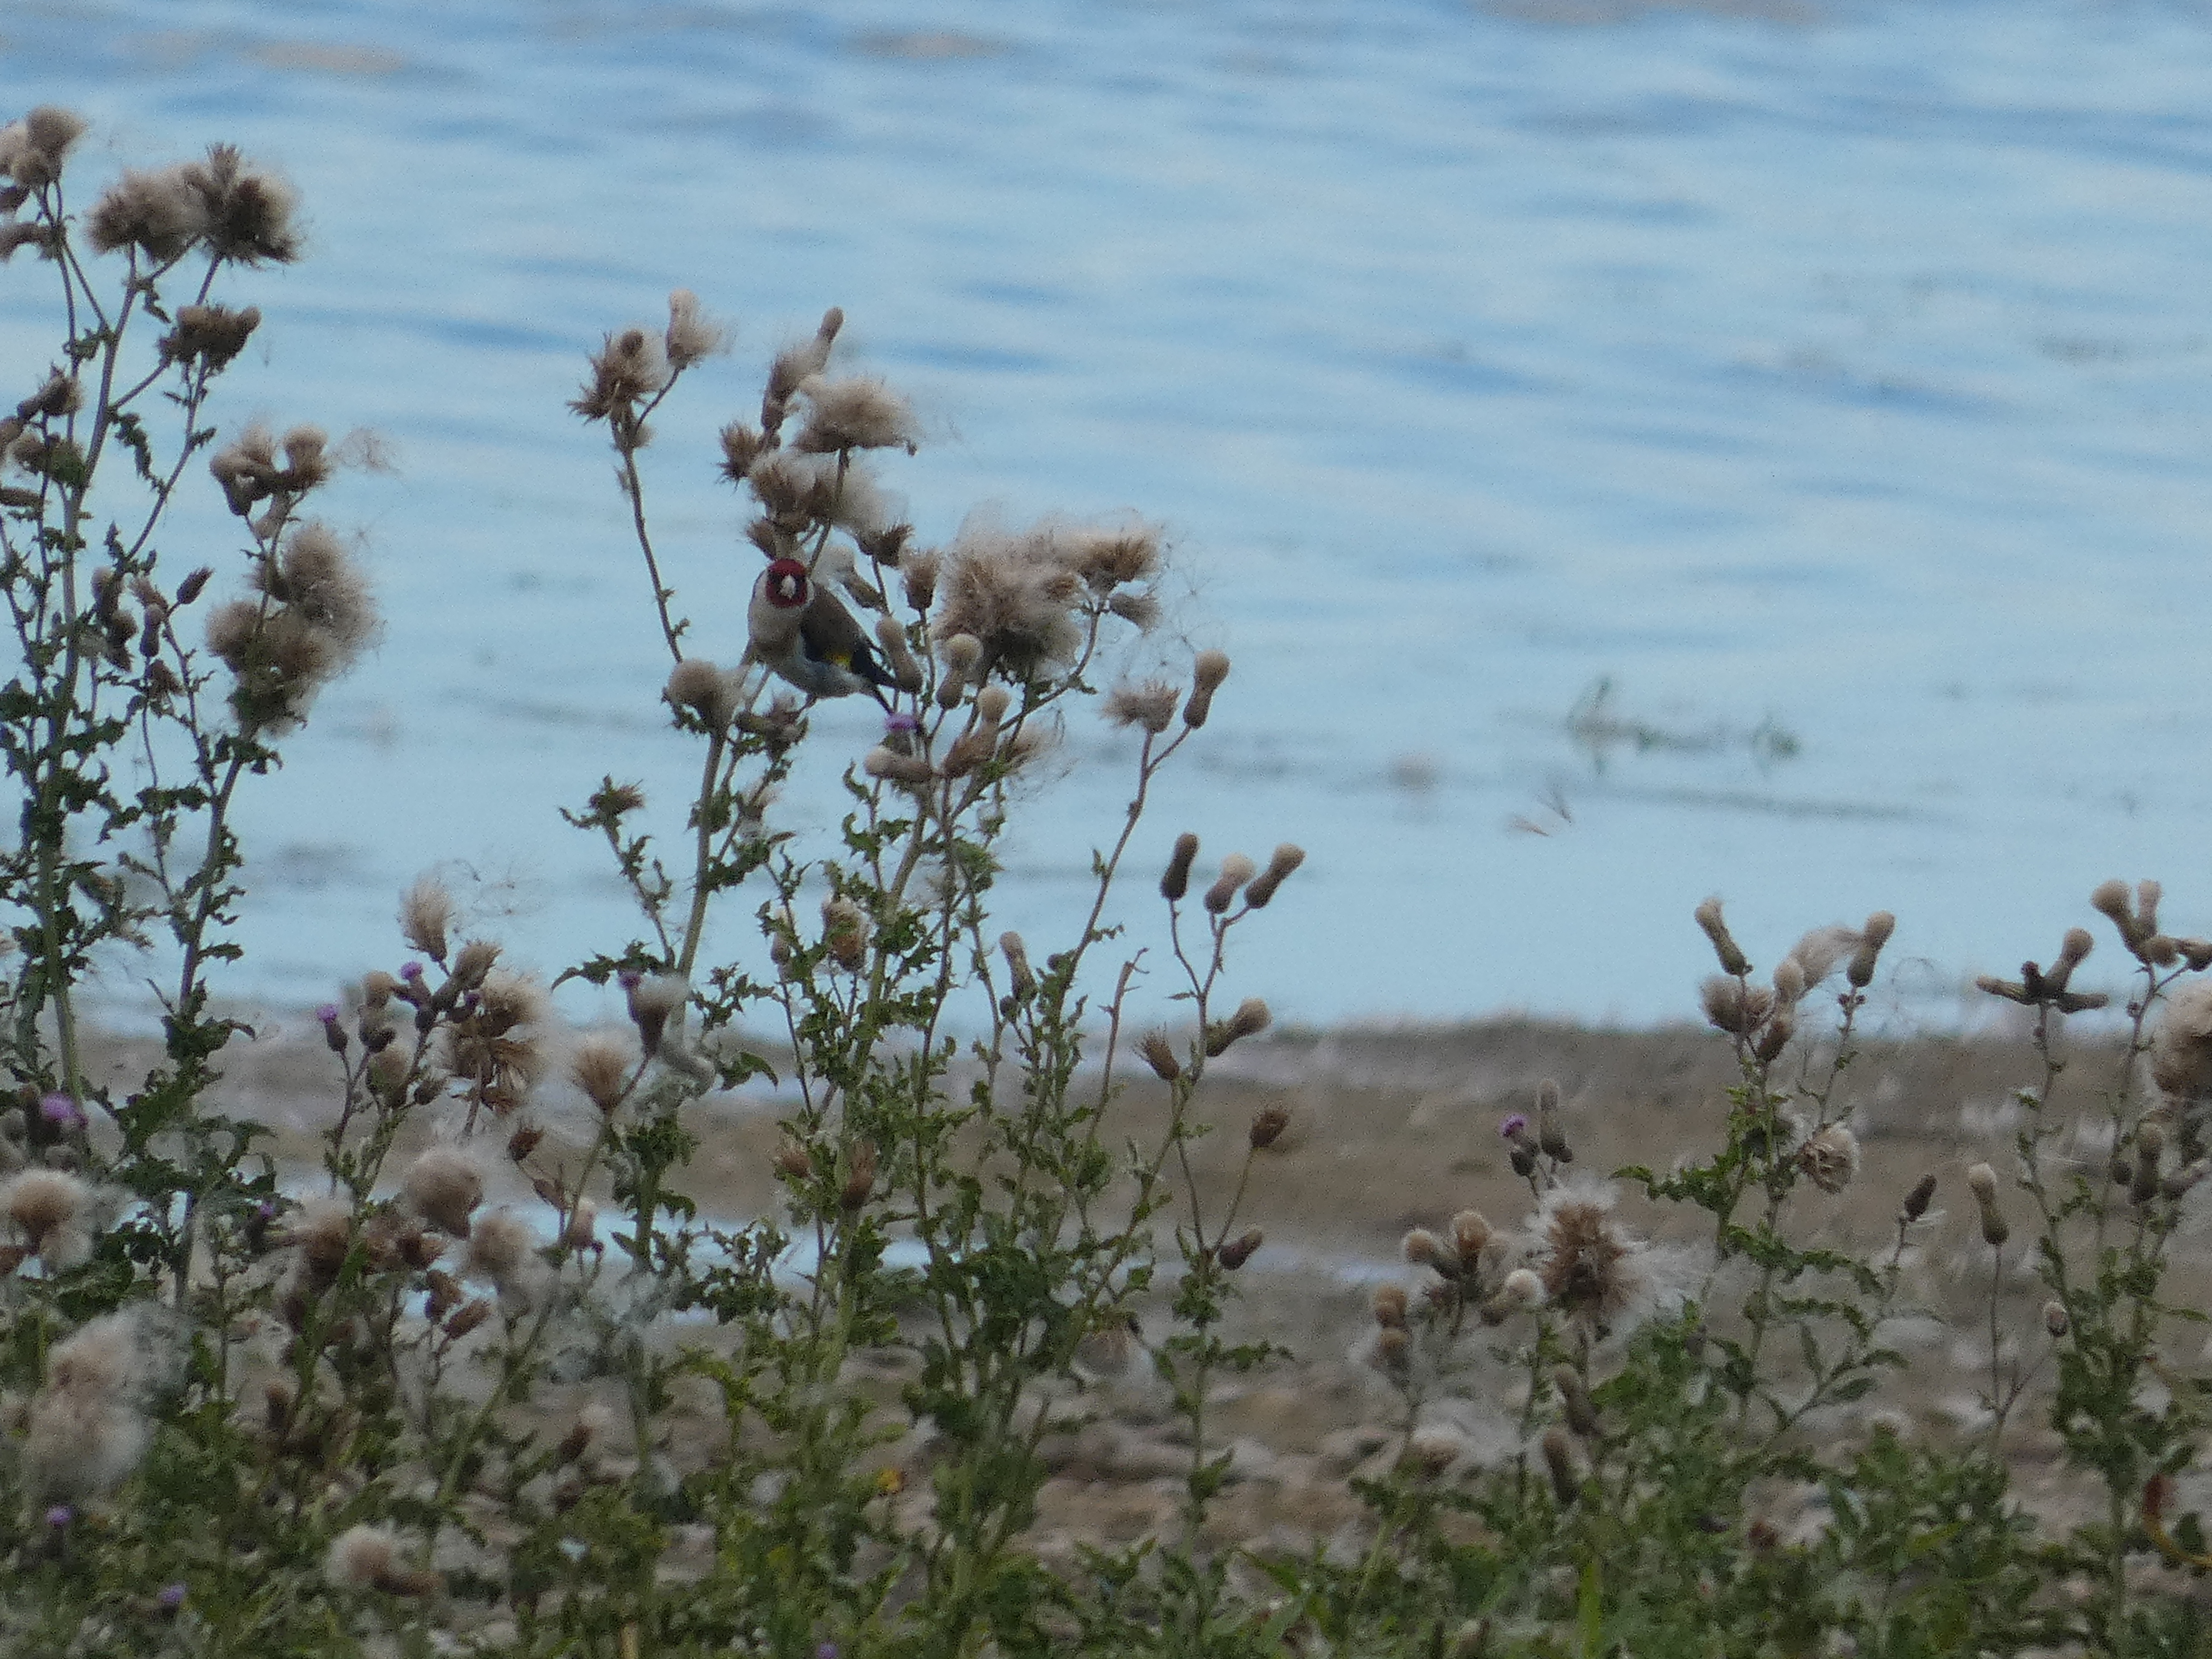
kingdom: Animalia
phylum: Chordata
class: Aves
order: Passeriformes
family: Fringillidae
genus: Carduelis
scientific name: Carduelis carduelis
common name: Stillits
